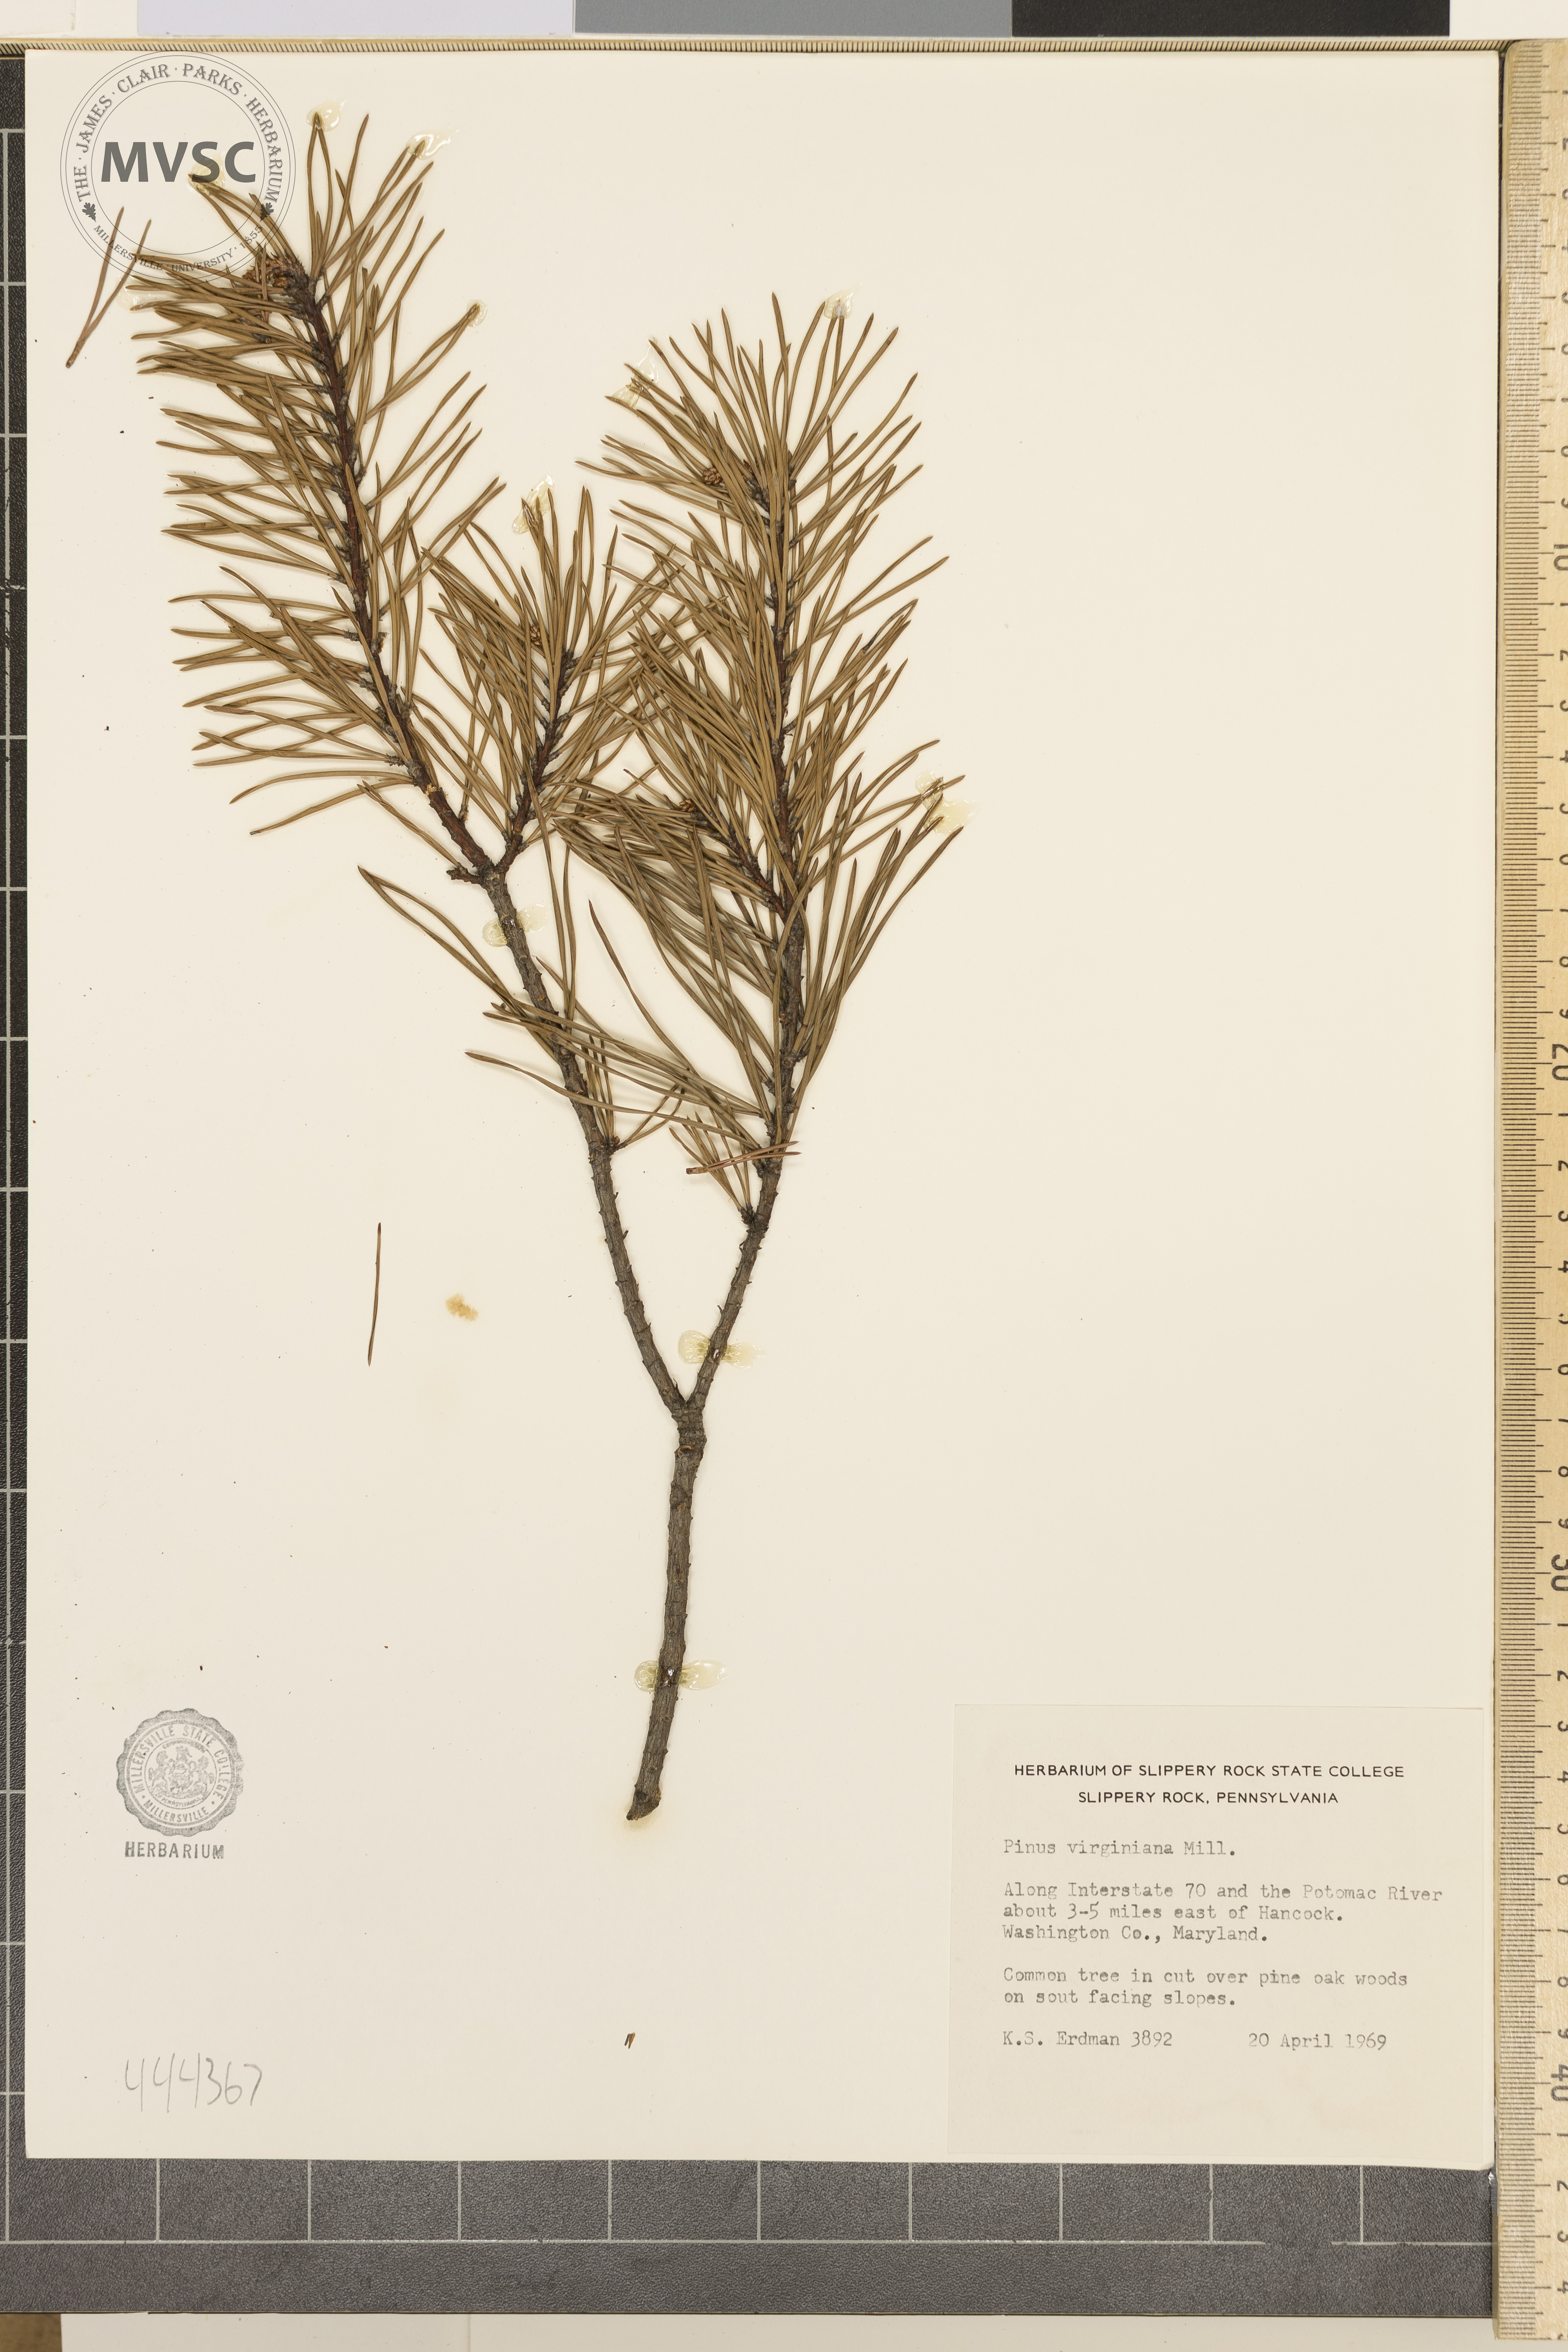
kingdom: Plantae
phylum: Tracheophyta
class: Pinopsida
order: Pinales
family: Pinaceae
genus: Pinus
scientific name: Pinus virginiana
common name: Scrub pine
